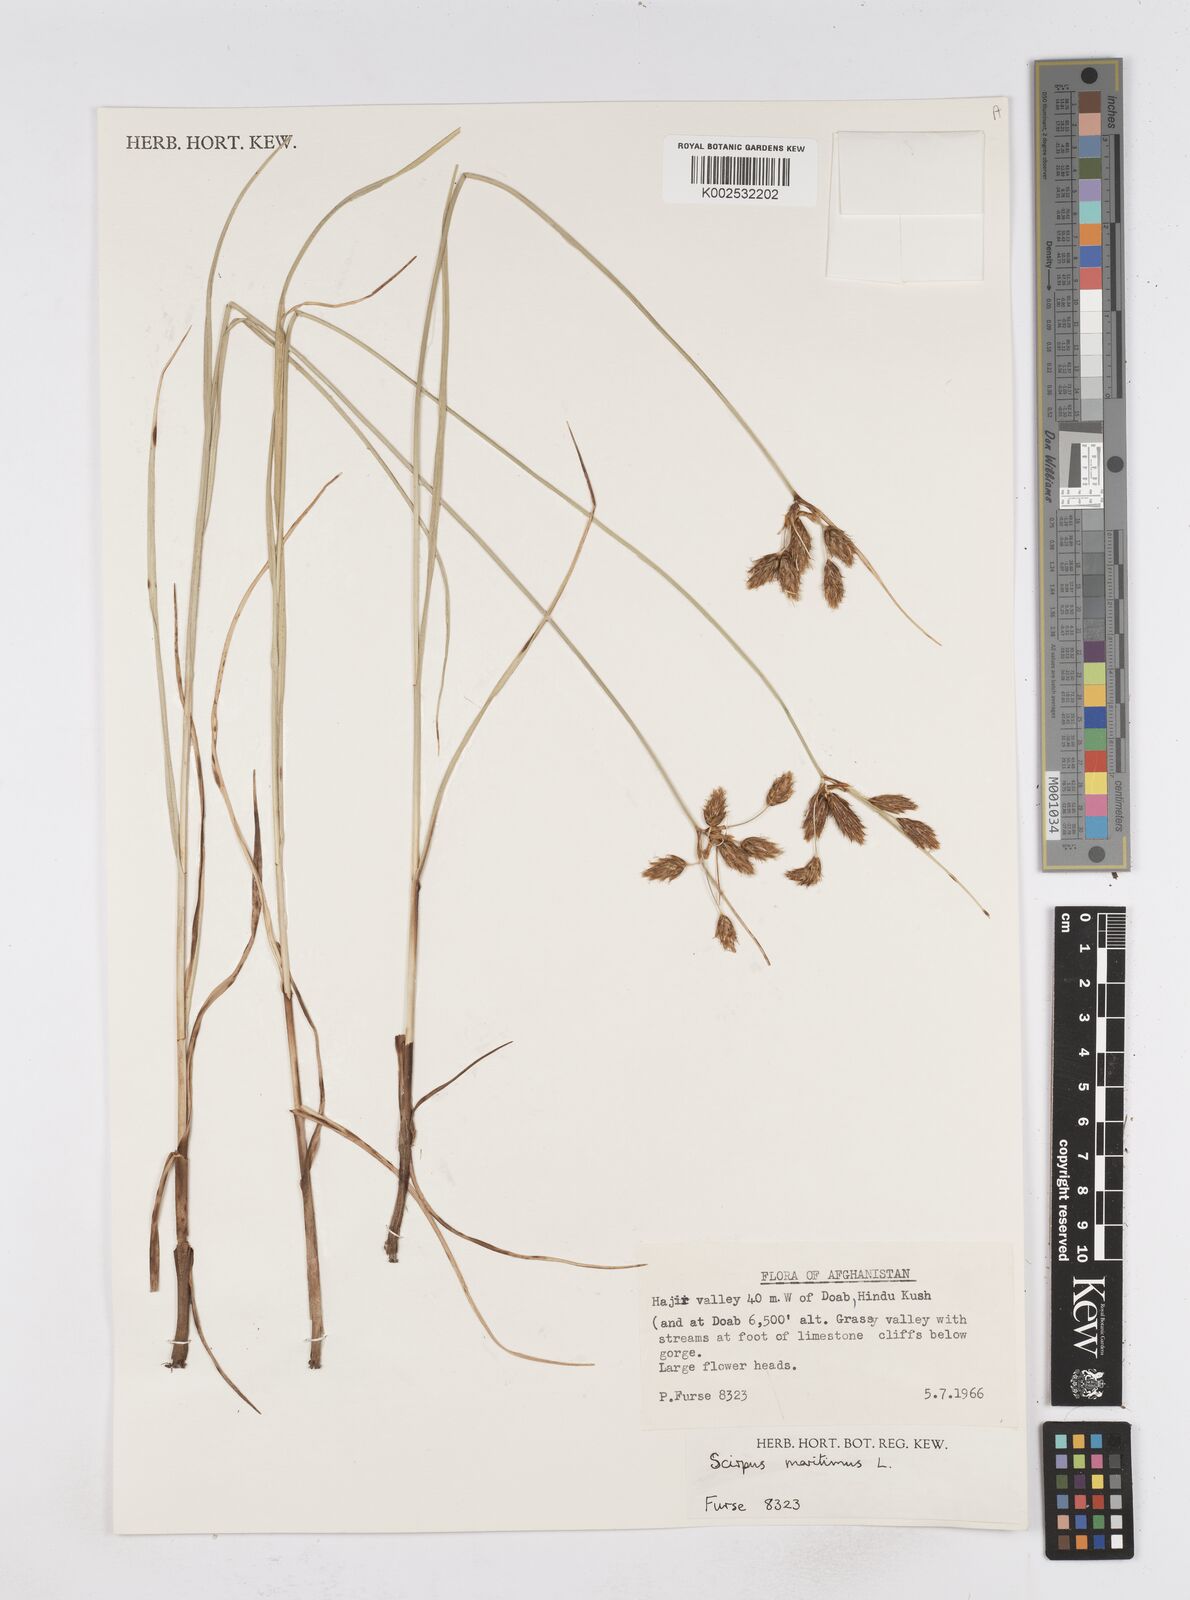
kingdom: Plantae
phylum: Tracheophyta
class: Liliopsida
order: Poales
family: Cyperaceae
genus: Bolboschoenus
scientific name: Bolboschoenus maritimus
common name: Sea club-rush
